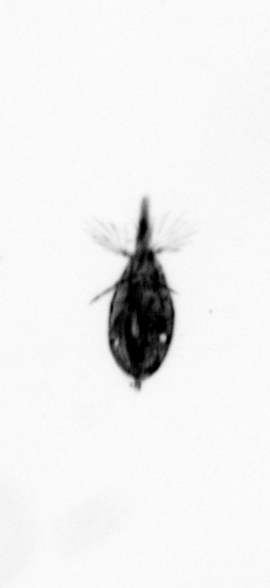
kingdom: Animalia
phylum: Arthropoda
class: Maxillopoda
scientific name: Maxillopoda
